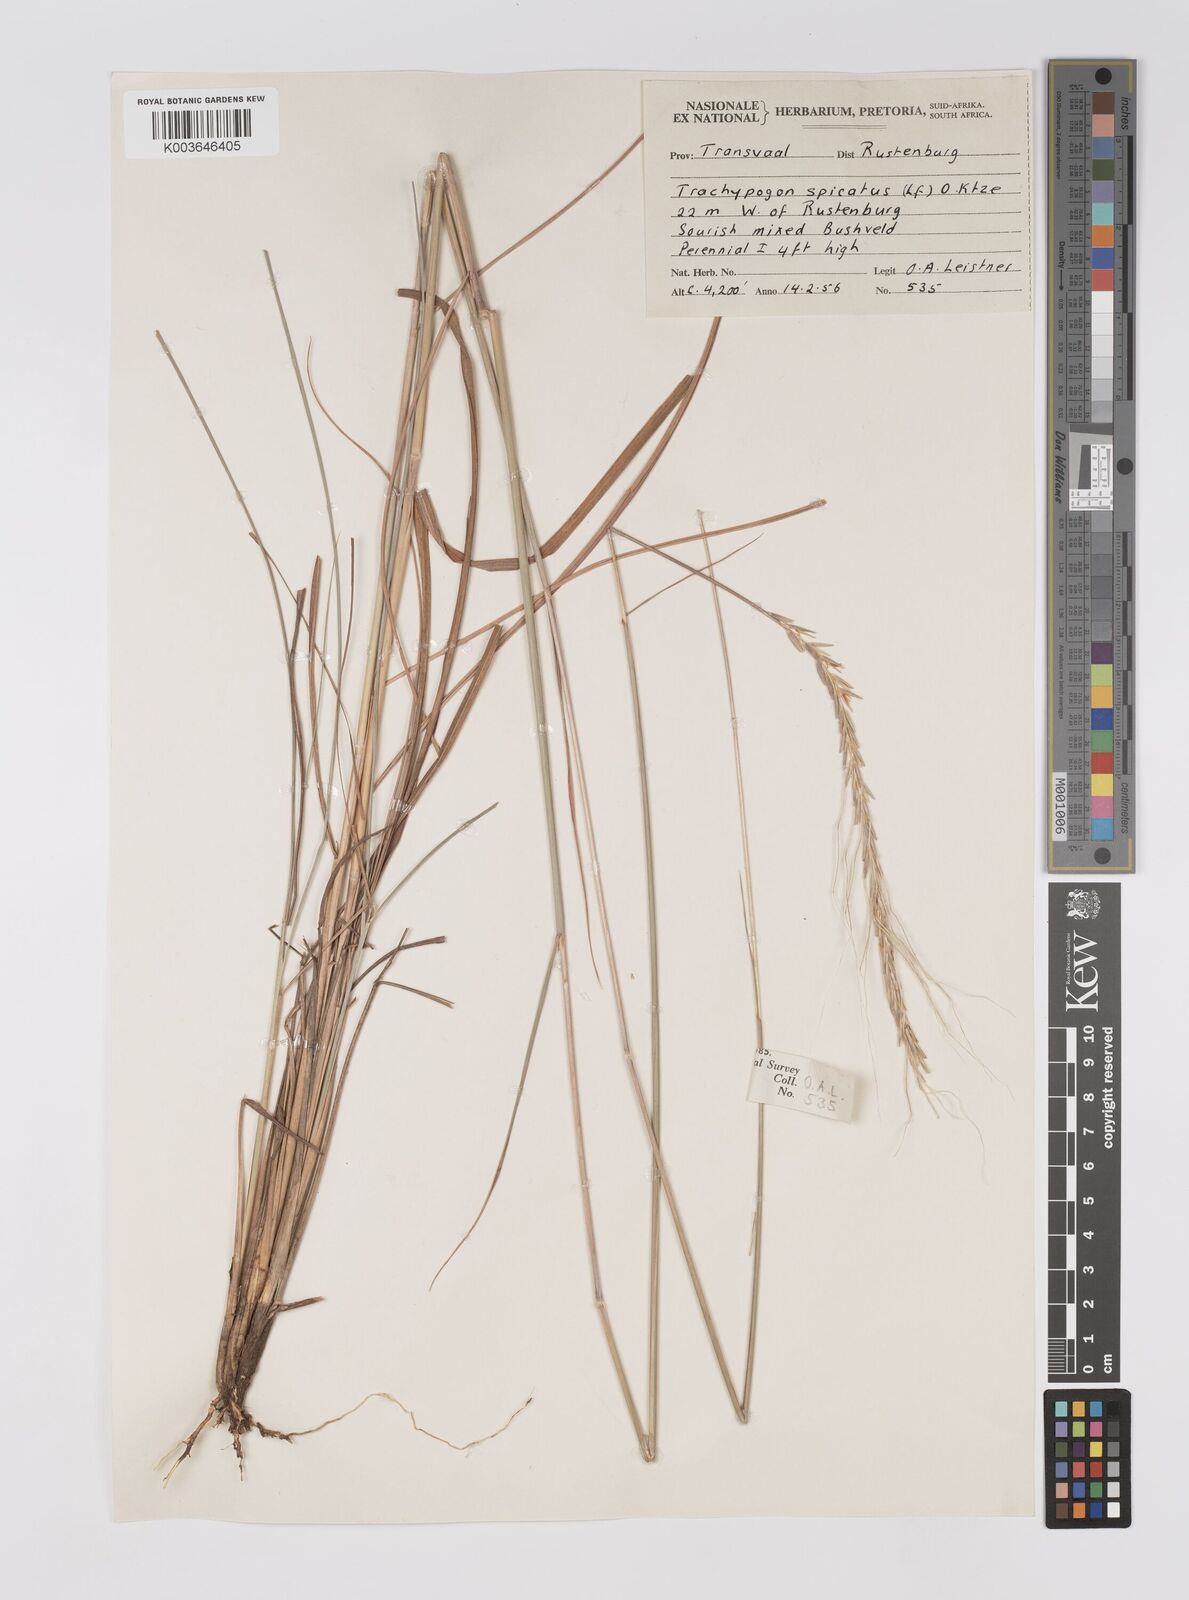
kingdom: Plantae
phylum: Tracheophyta
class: Liliopsida
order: Poales
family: Poaceae
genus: Trachypogon
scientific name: Trachypogon spicatus
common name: Crinkle-awn
